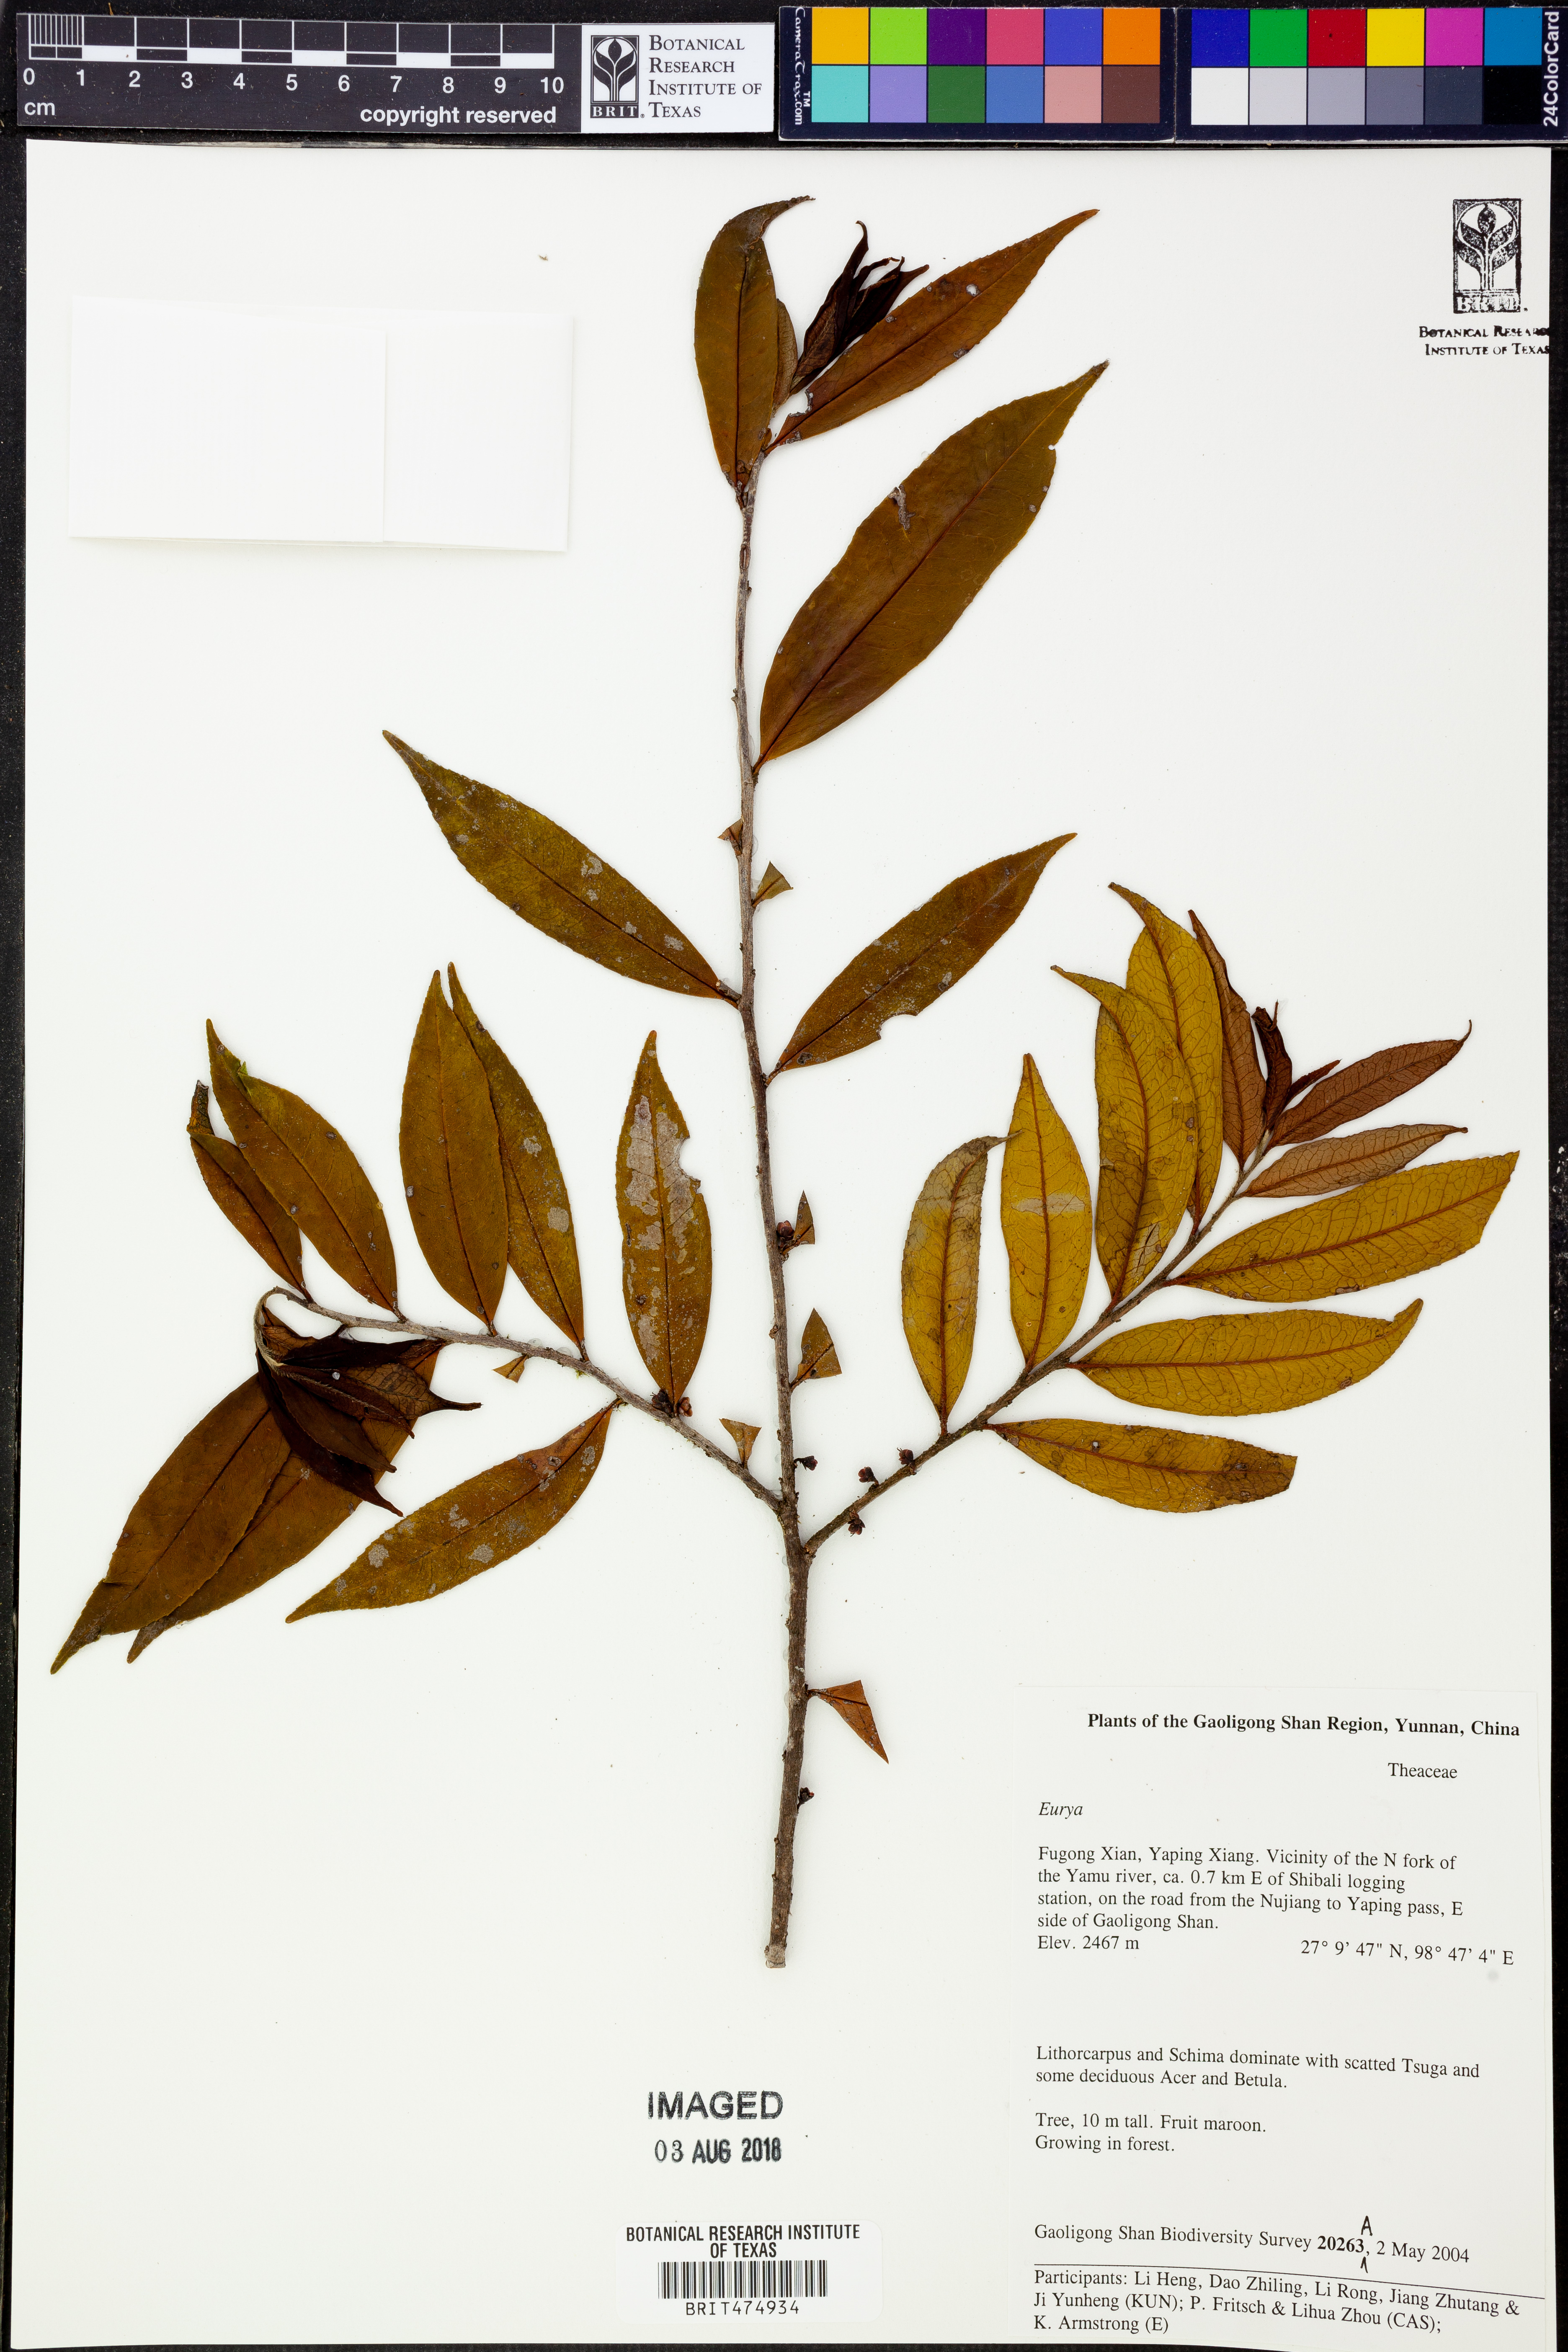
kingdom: Plantae
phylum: Tracheophyta
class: Magnoliopsida
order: Ericales
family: Pentaphylacaceae
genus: Eurya
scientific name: Eurya
